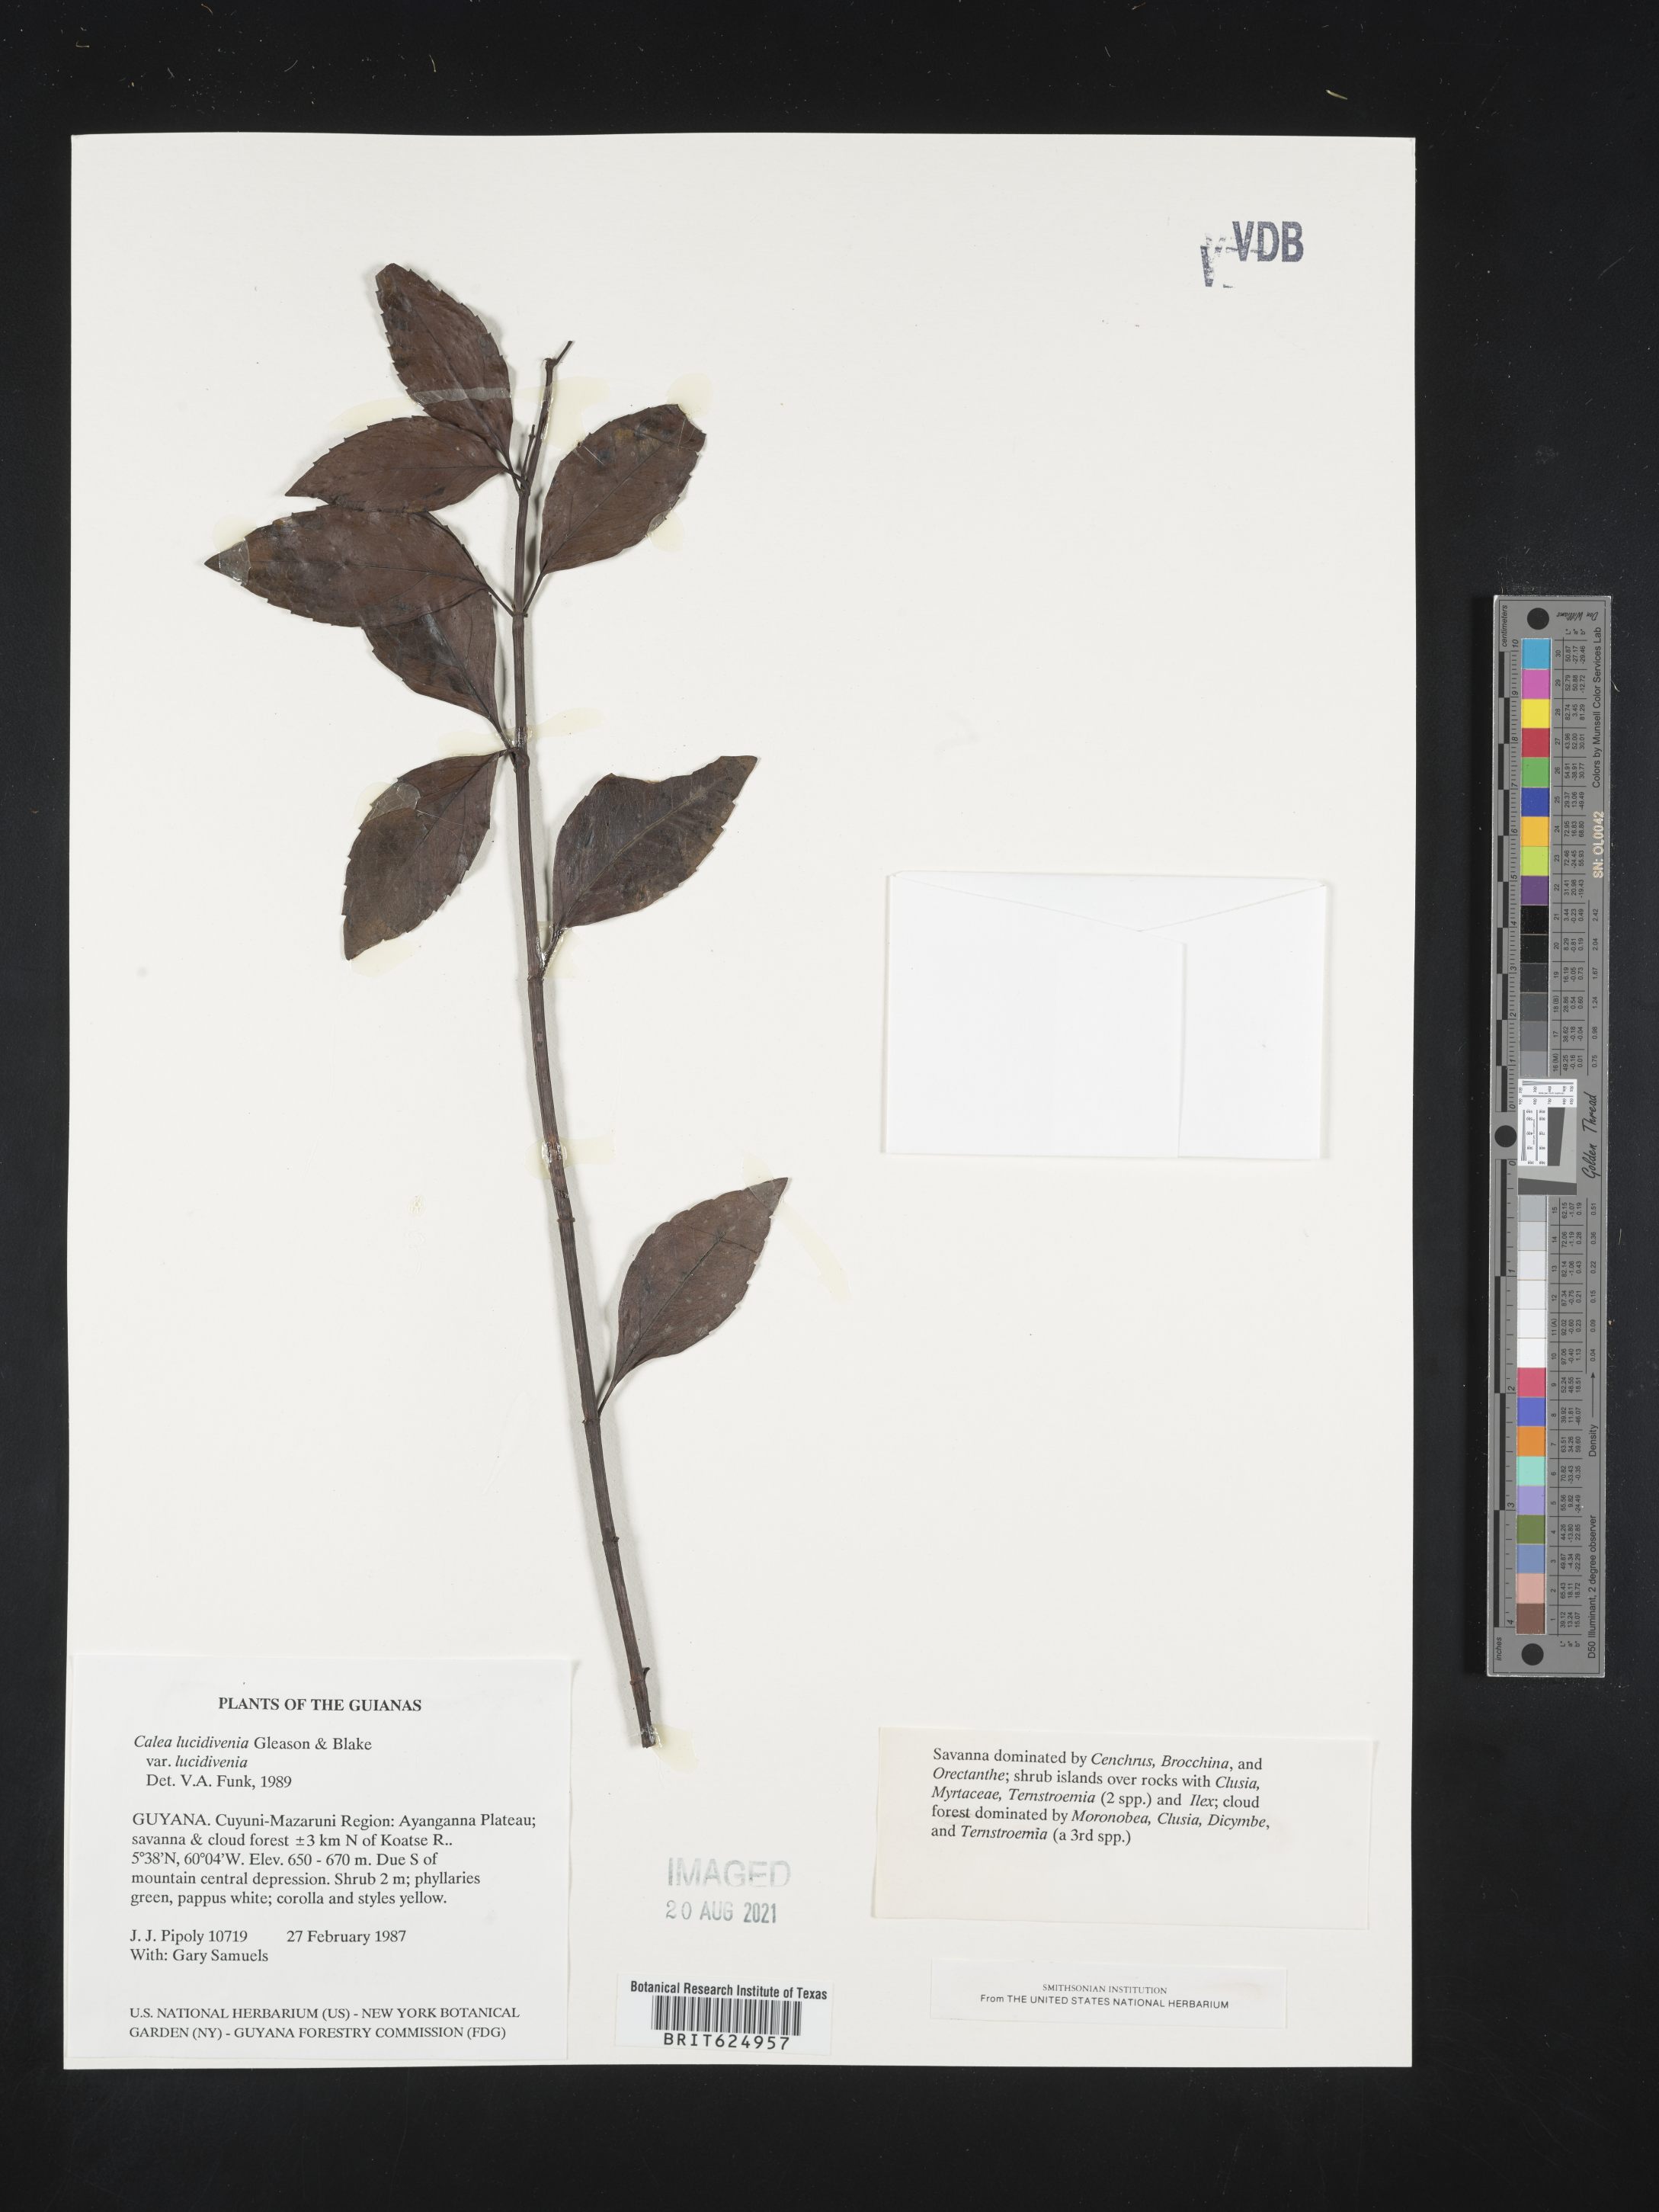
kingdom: Plantae
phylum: Tracheophyta
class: Magnoliopsida
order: Asterales
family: Asteraceae
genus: Calea
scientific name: Calea lucidivenia
